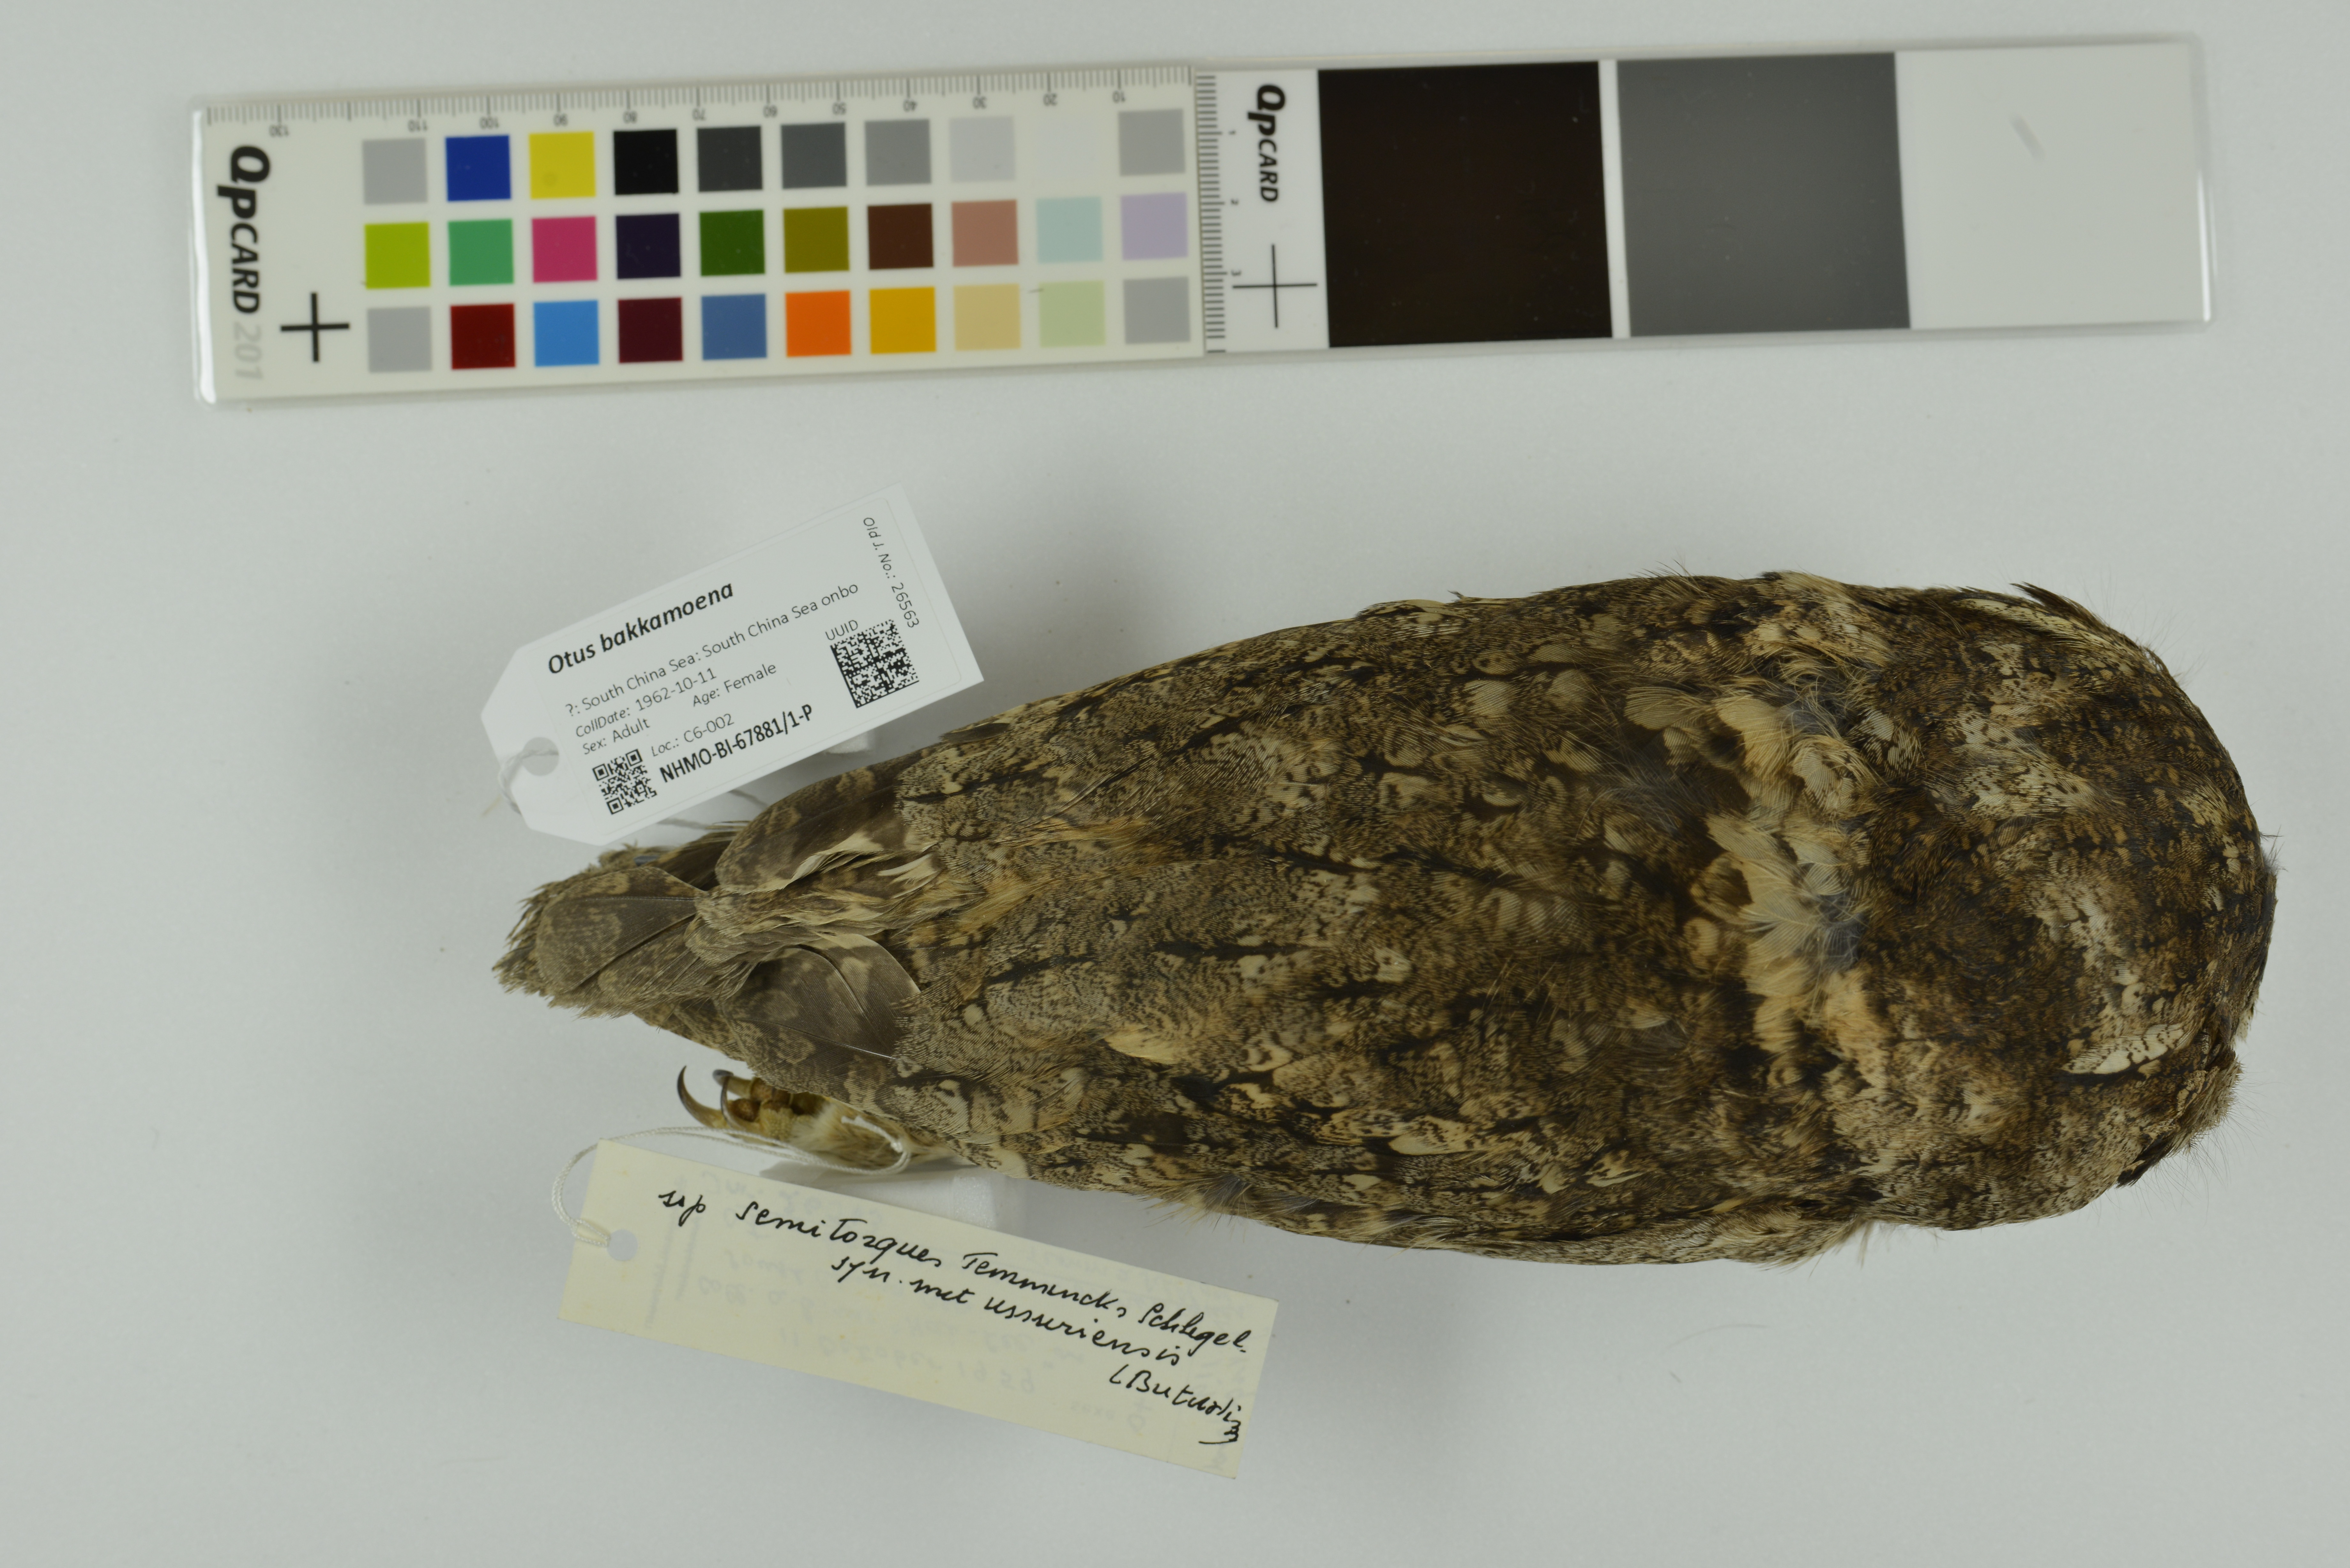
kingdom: Animalia
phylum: Chordata
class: Aves
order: Strigiformes
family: Strigidae
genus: Otus
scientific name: Otus bakkamoena
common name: Indian scops owl
